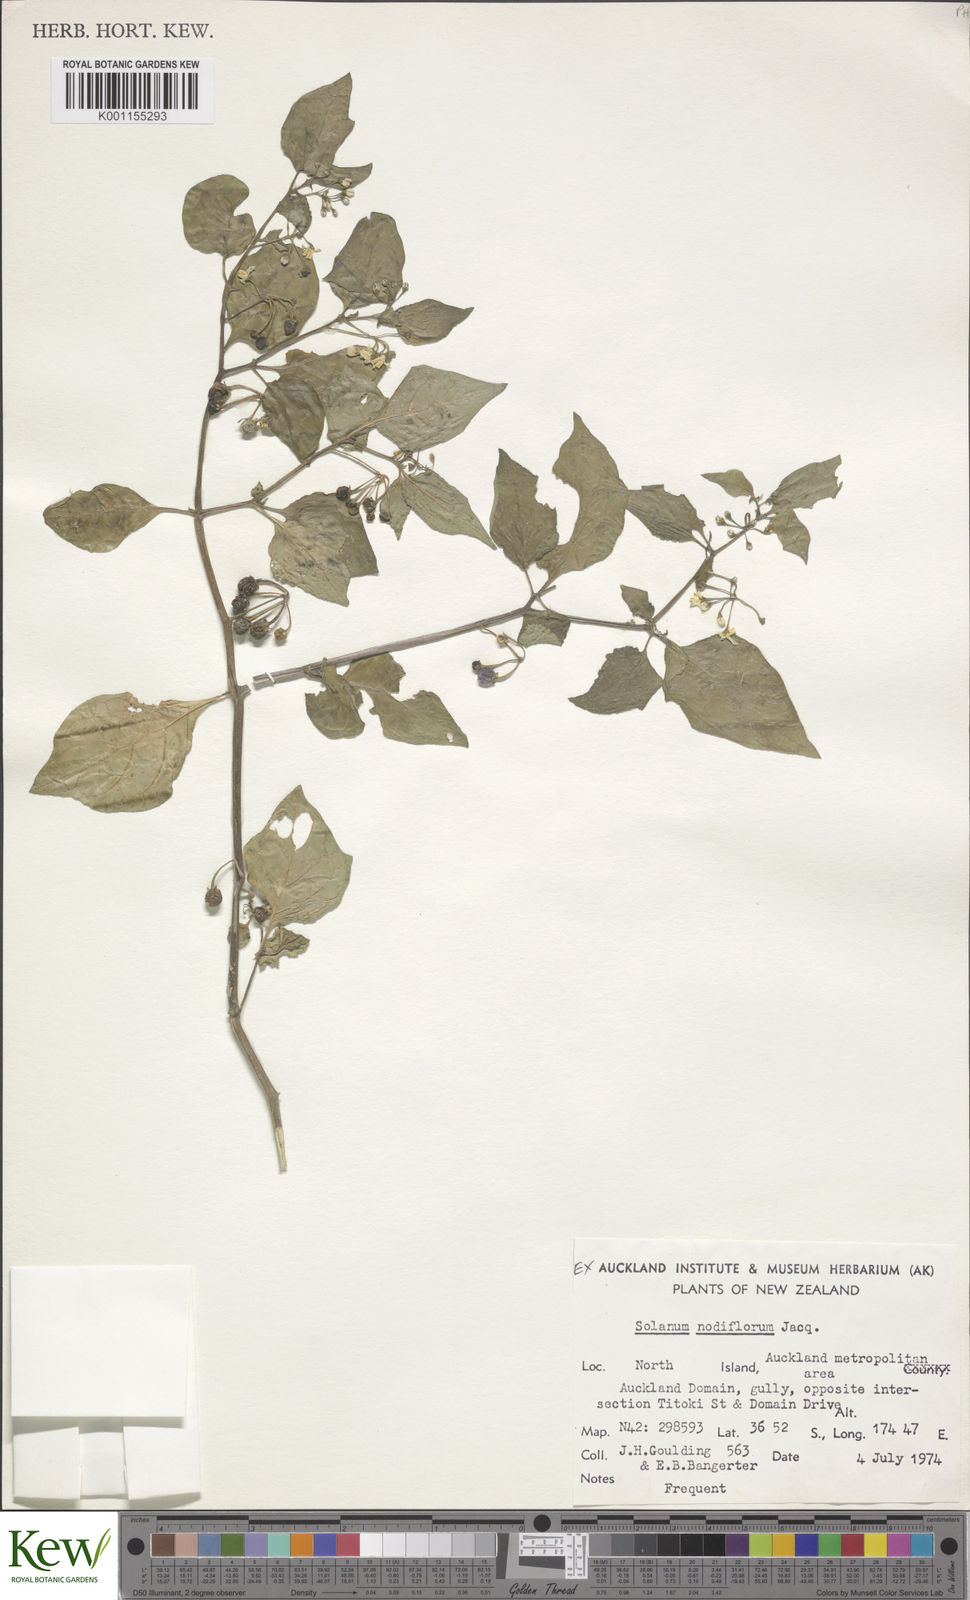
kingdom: Plantae
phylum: Tracheophyta
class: Magnoliopsida
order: Solanales
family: Solanaceae
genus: Solanum
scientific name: Solanum nigrum
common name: Black nightshade
